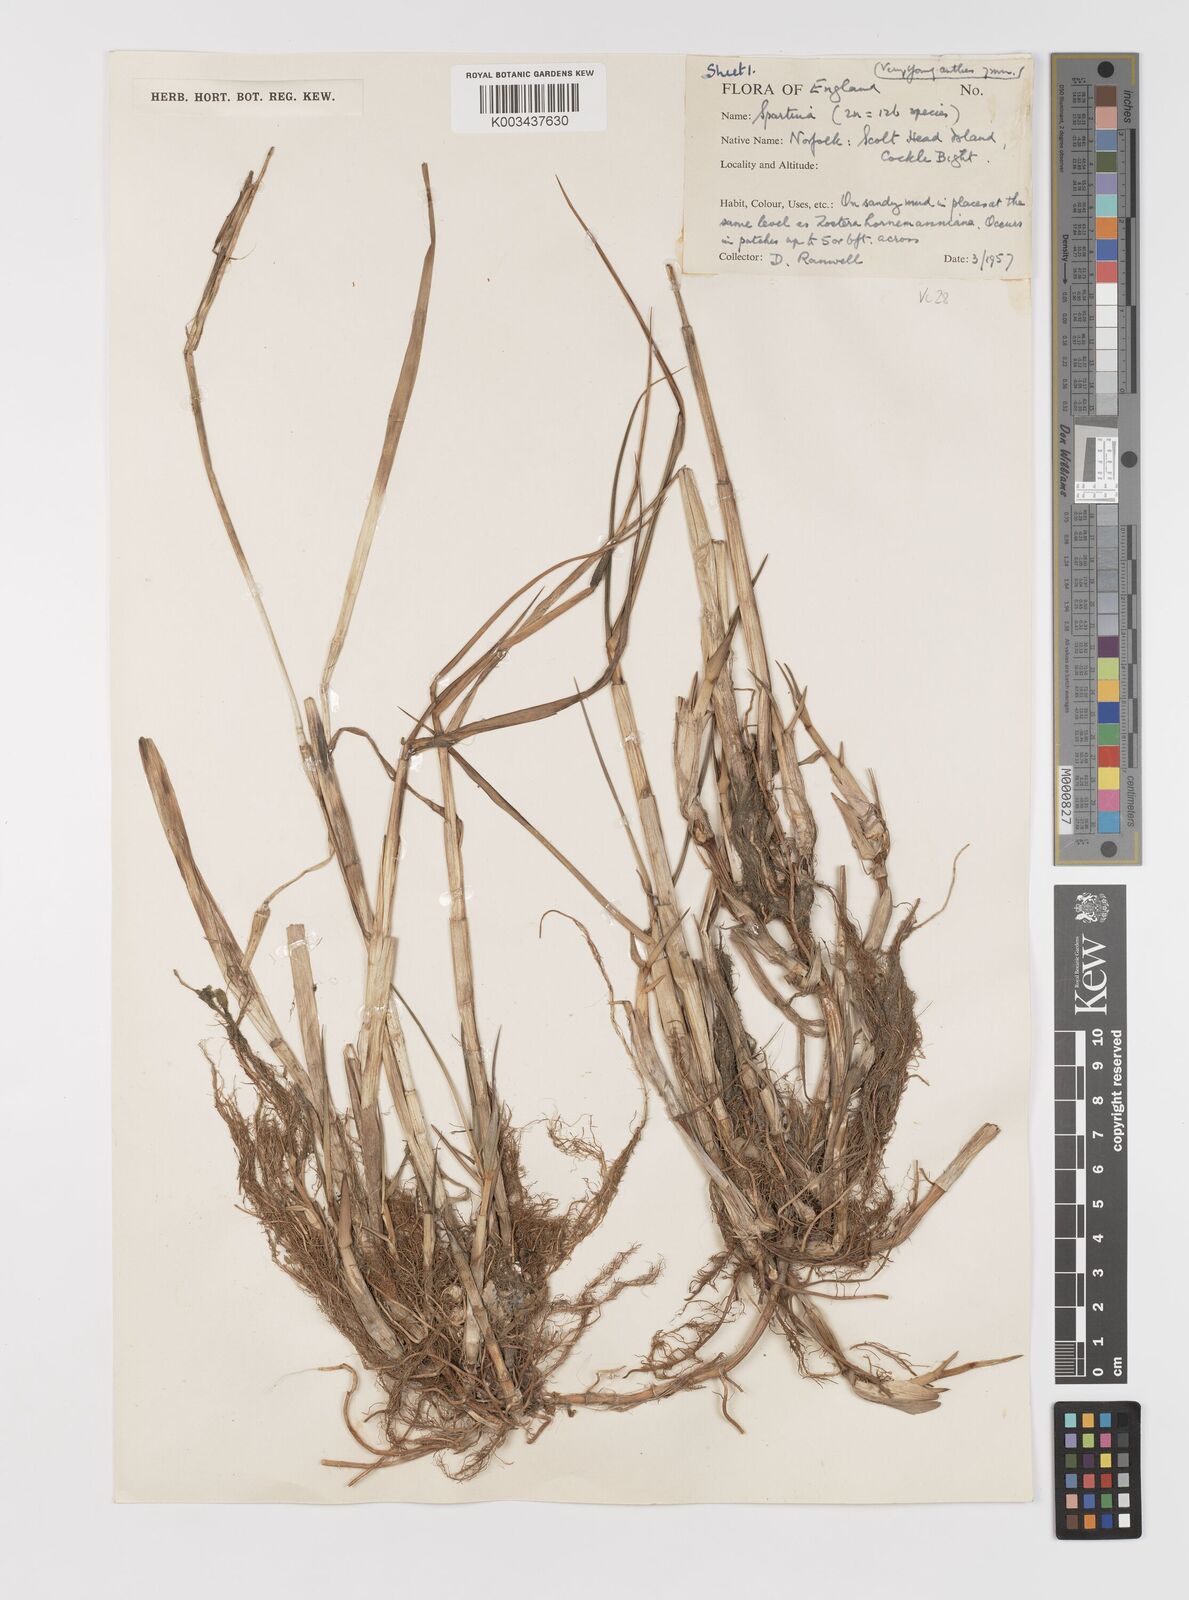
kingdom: Plantae
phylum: Tracheophyta
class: Liliopsida
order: Poales
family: Poaceae
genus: Sporobolus
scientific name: Sporobolus anglicus
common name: English cordgrass
